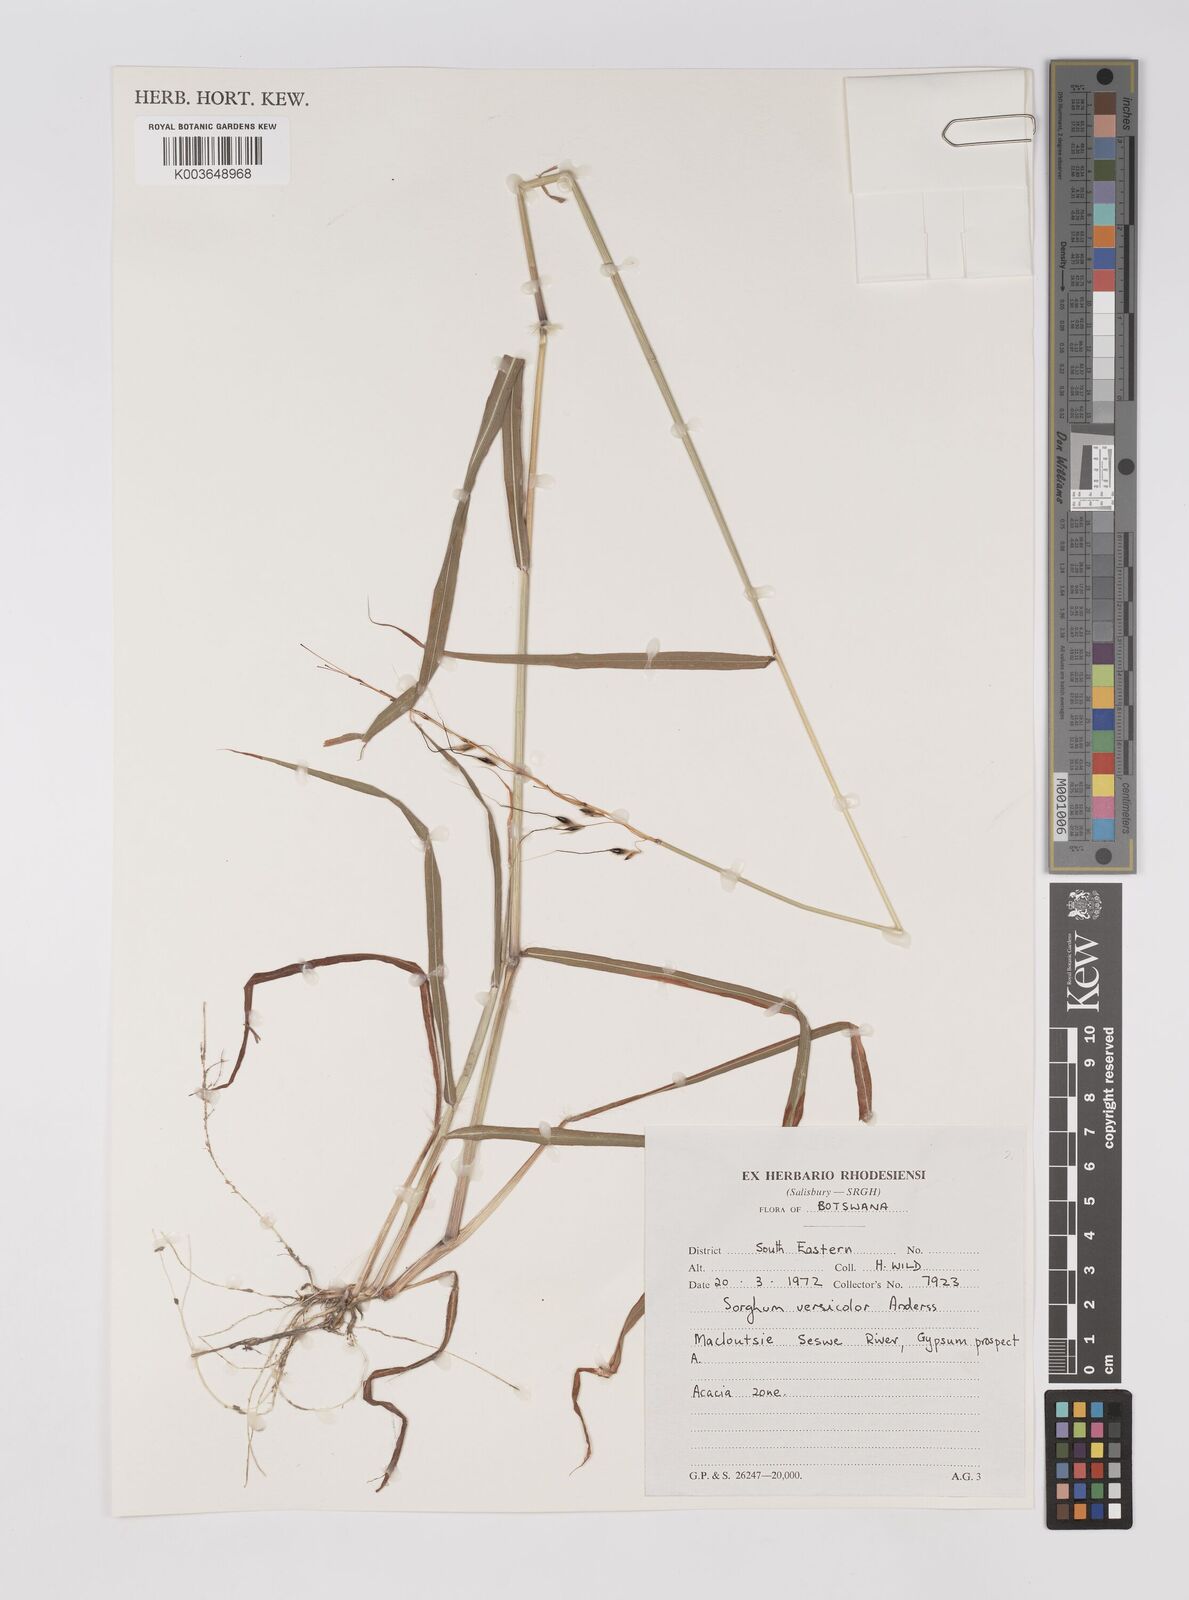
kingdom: Plantae
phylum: Tracheophyta
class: Liliopsida
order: Poales
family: Poaceae
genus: Sarga
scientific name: Sarga versicolor
